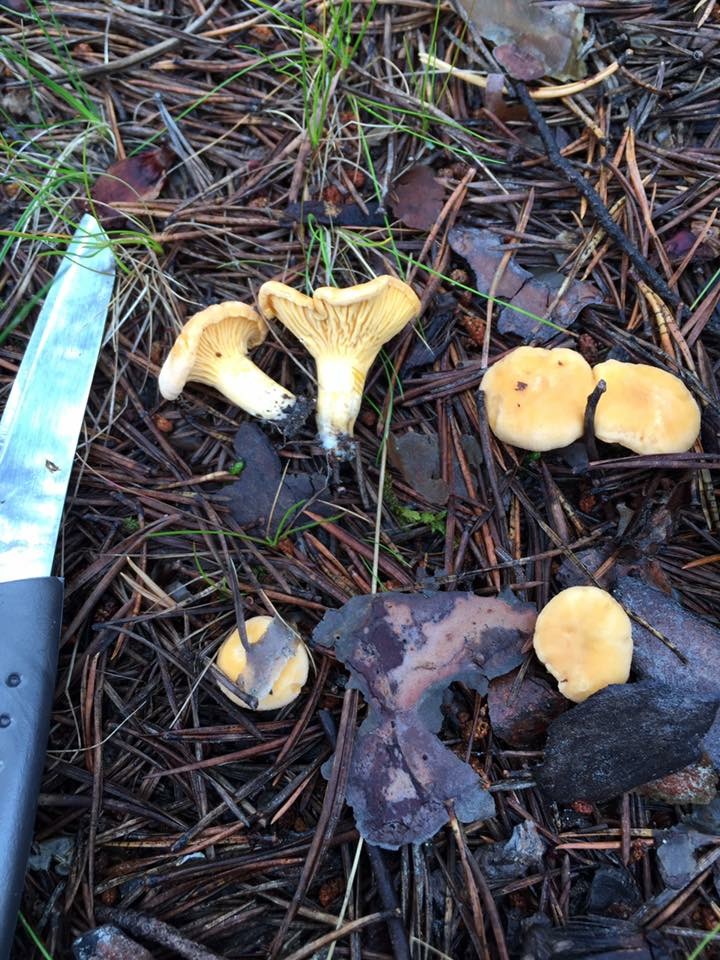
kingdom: Fungi
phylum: Basidiomycota
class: Agaricomycetes
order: Cantharellales
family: Hydnaceae
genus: Cantharellus
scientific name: Cantharellus cibarius
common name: Chanterelle
